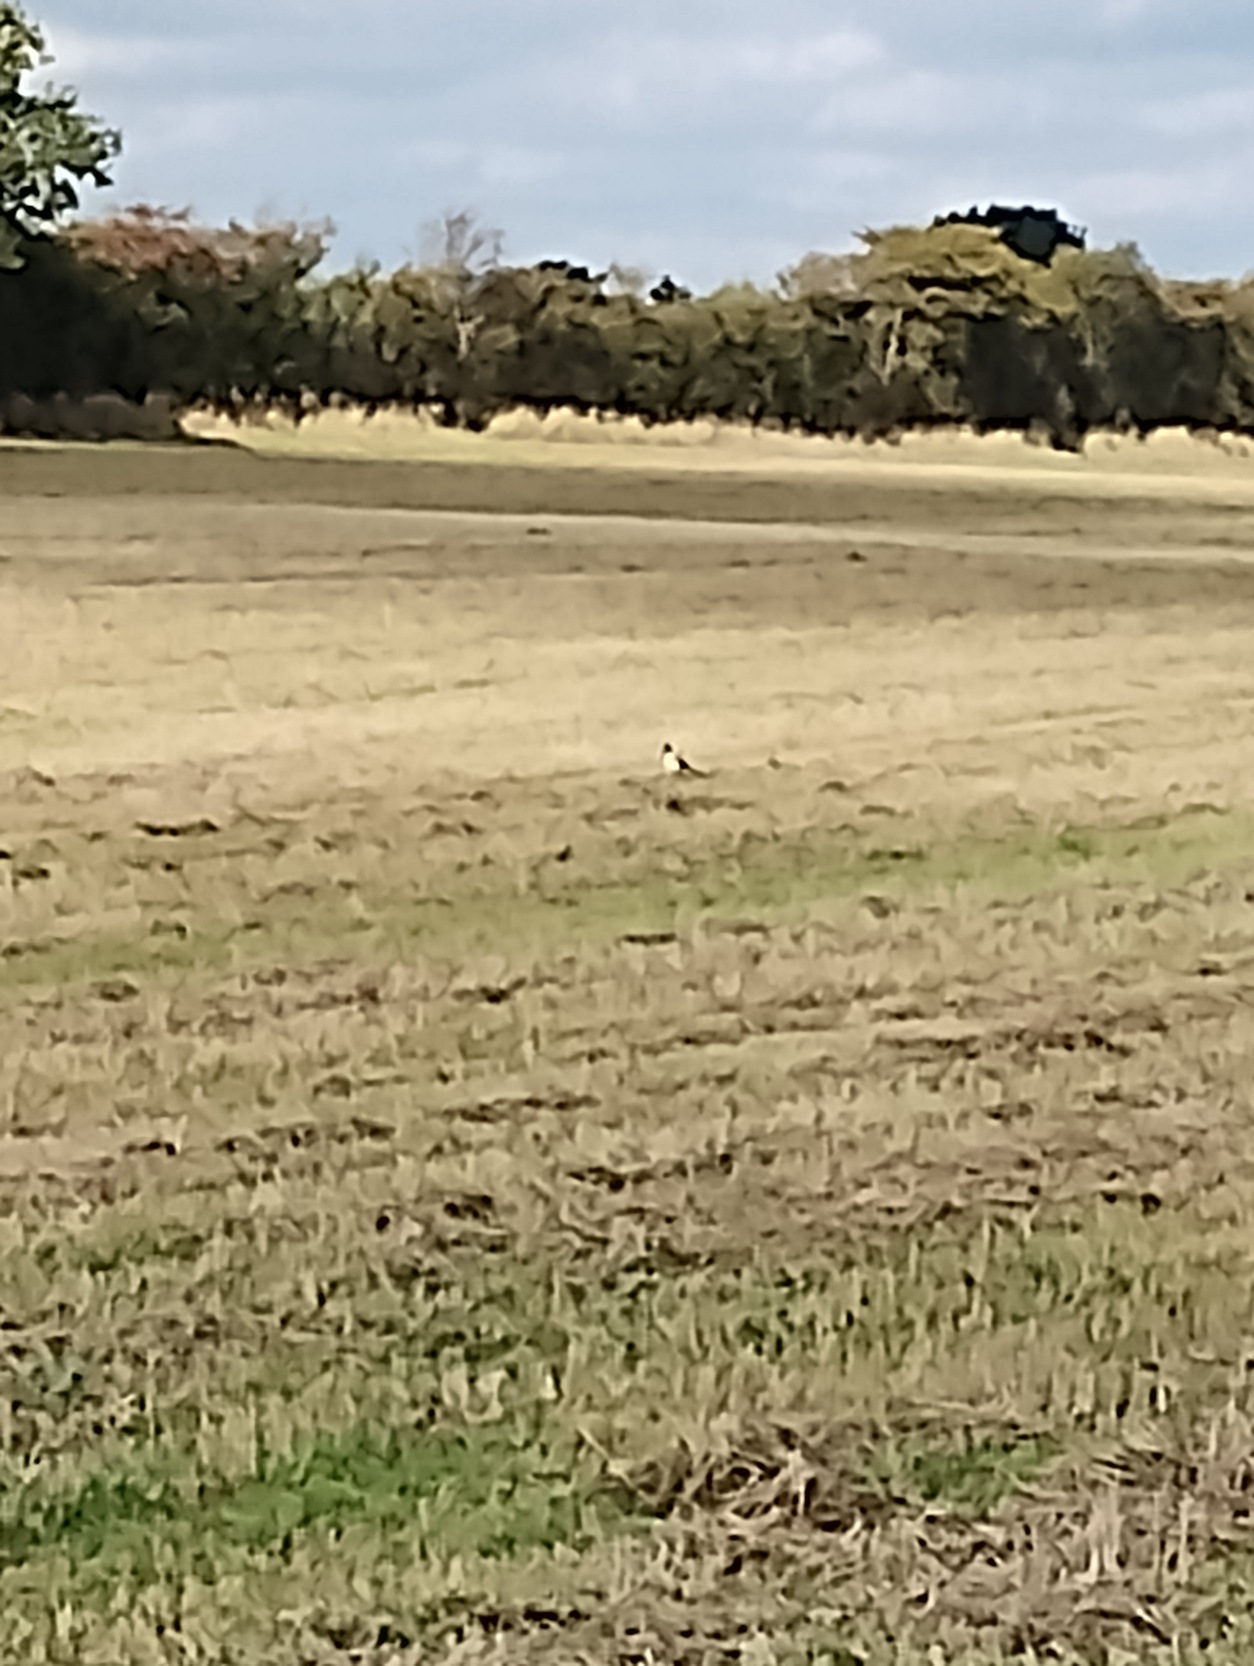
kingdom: Animalia
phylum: Chordata
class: Aves
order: Passeriformes
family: Corvidae
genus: Pica
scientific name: Pica pica
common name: Husskade
